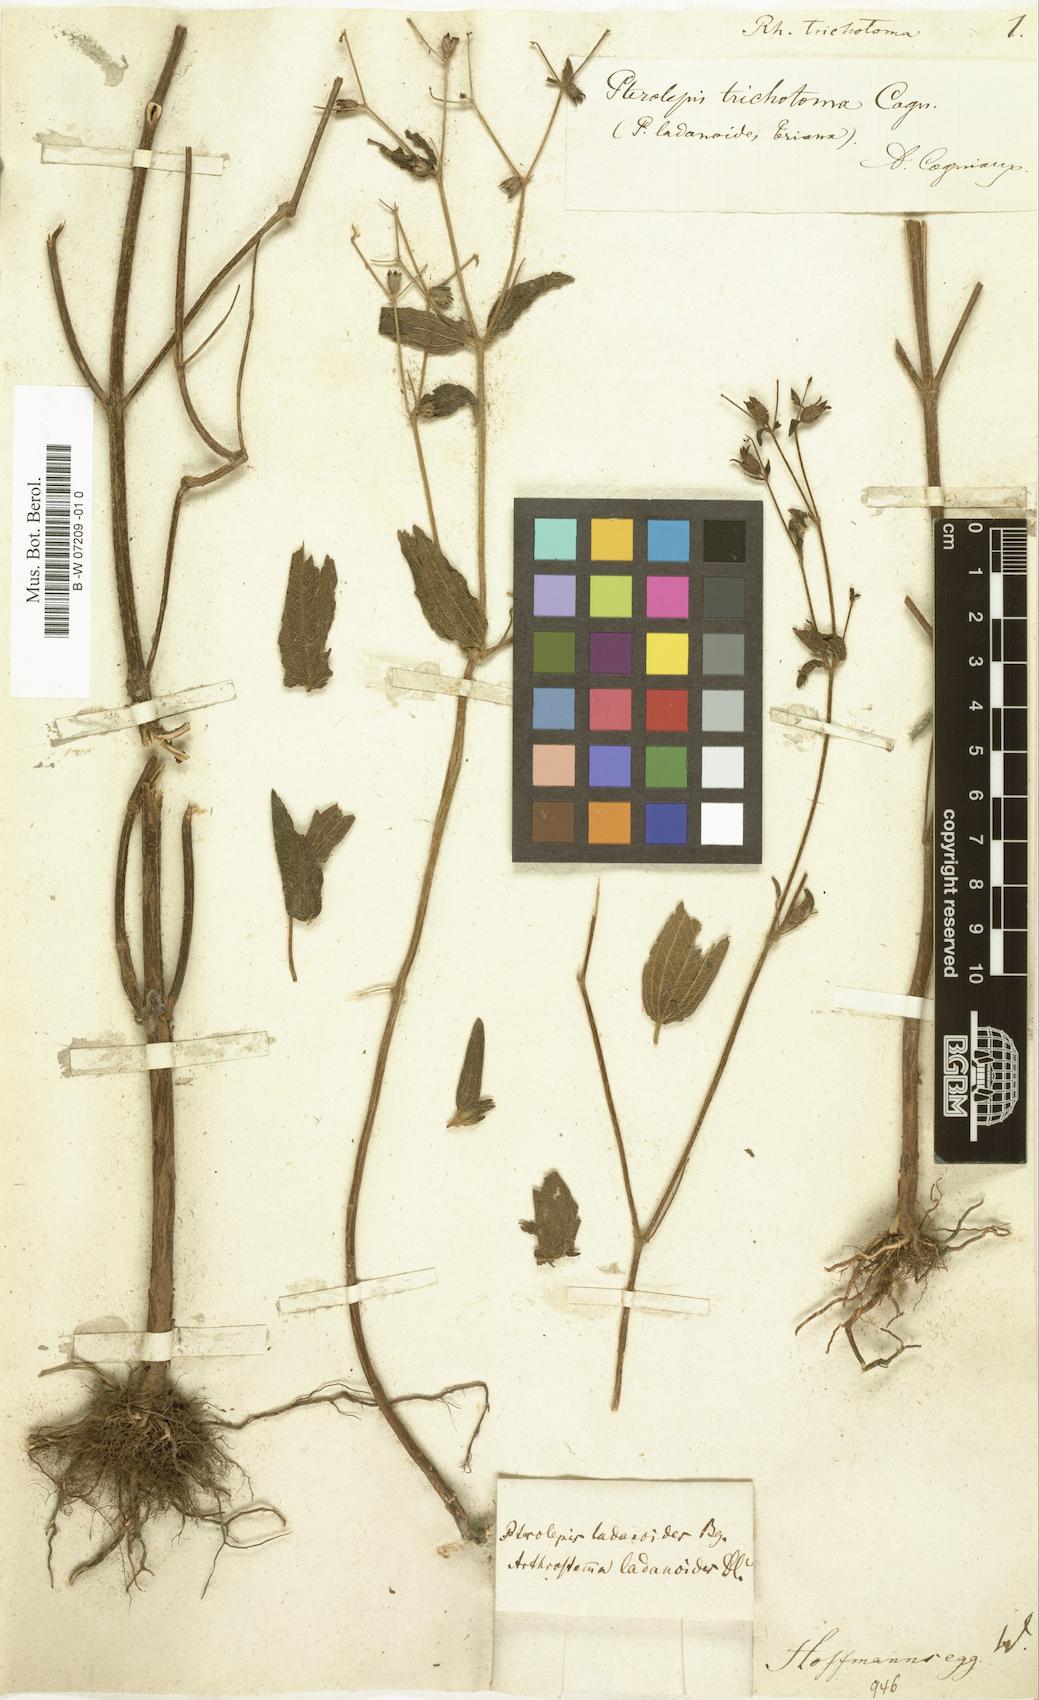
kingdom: Plantae
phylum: Tracheophyta
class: Magnoliopsida
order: Myrtales
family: Melastomataceae
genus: Rhexia
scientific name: Rhexia trichotoma
